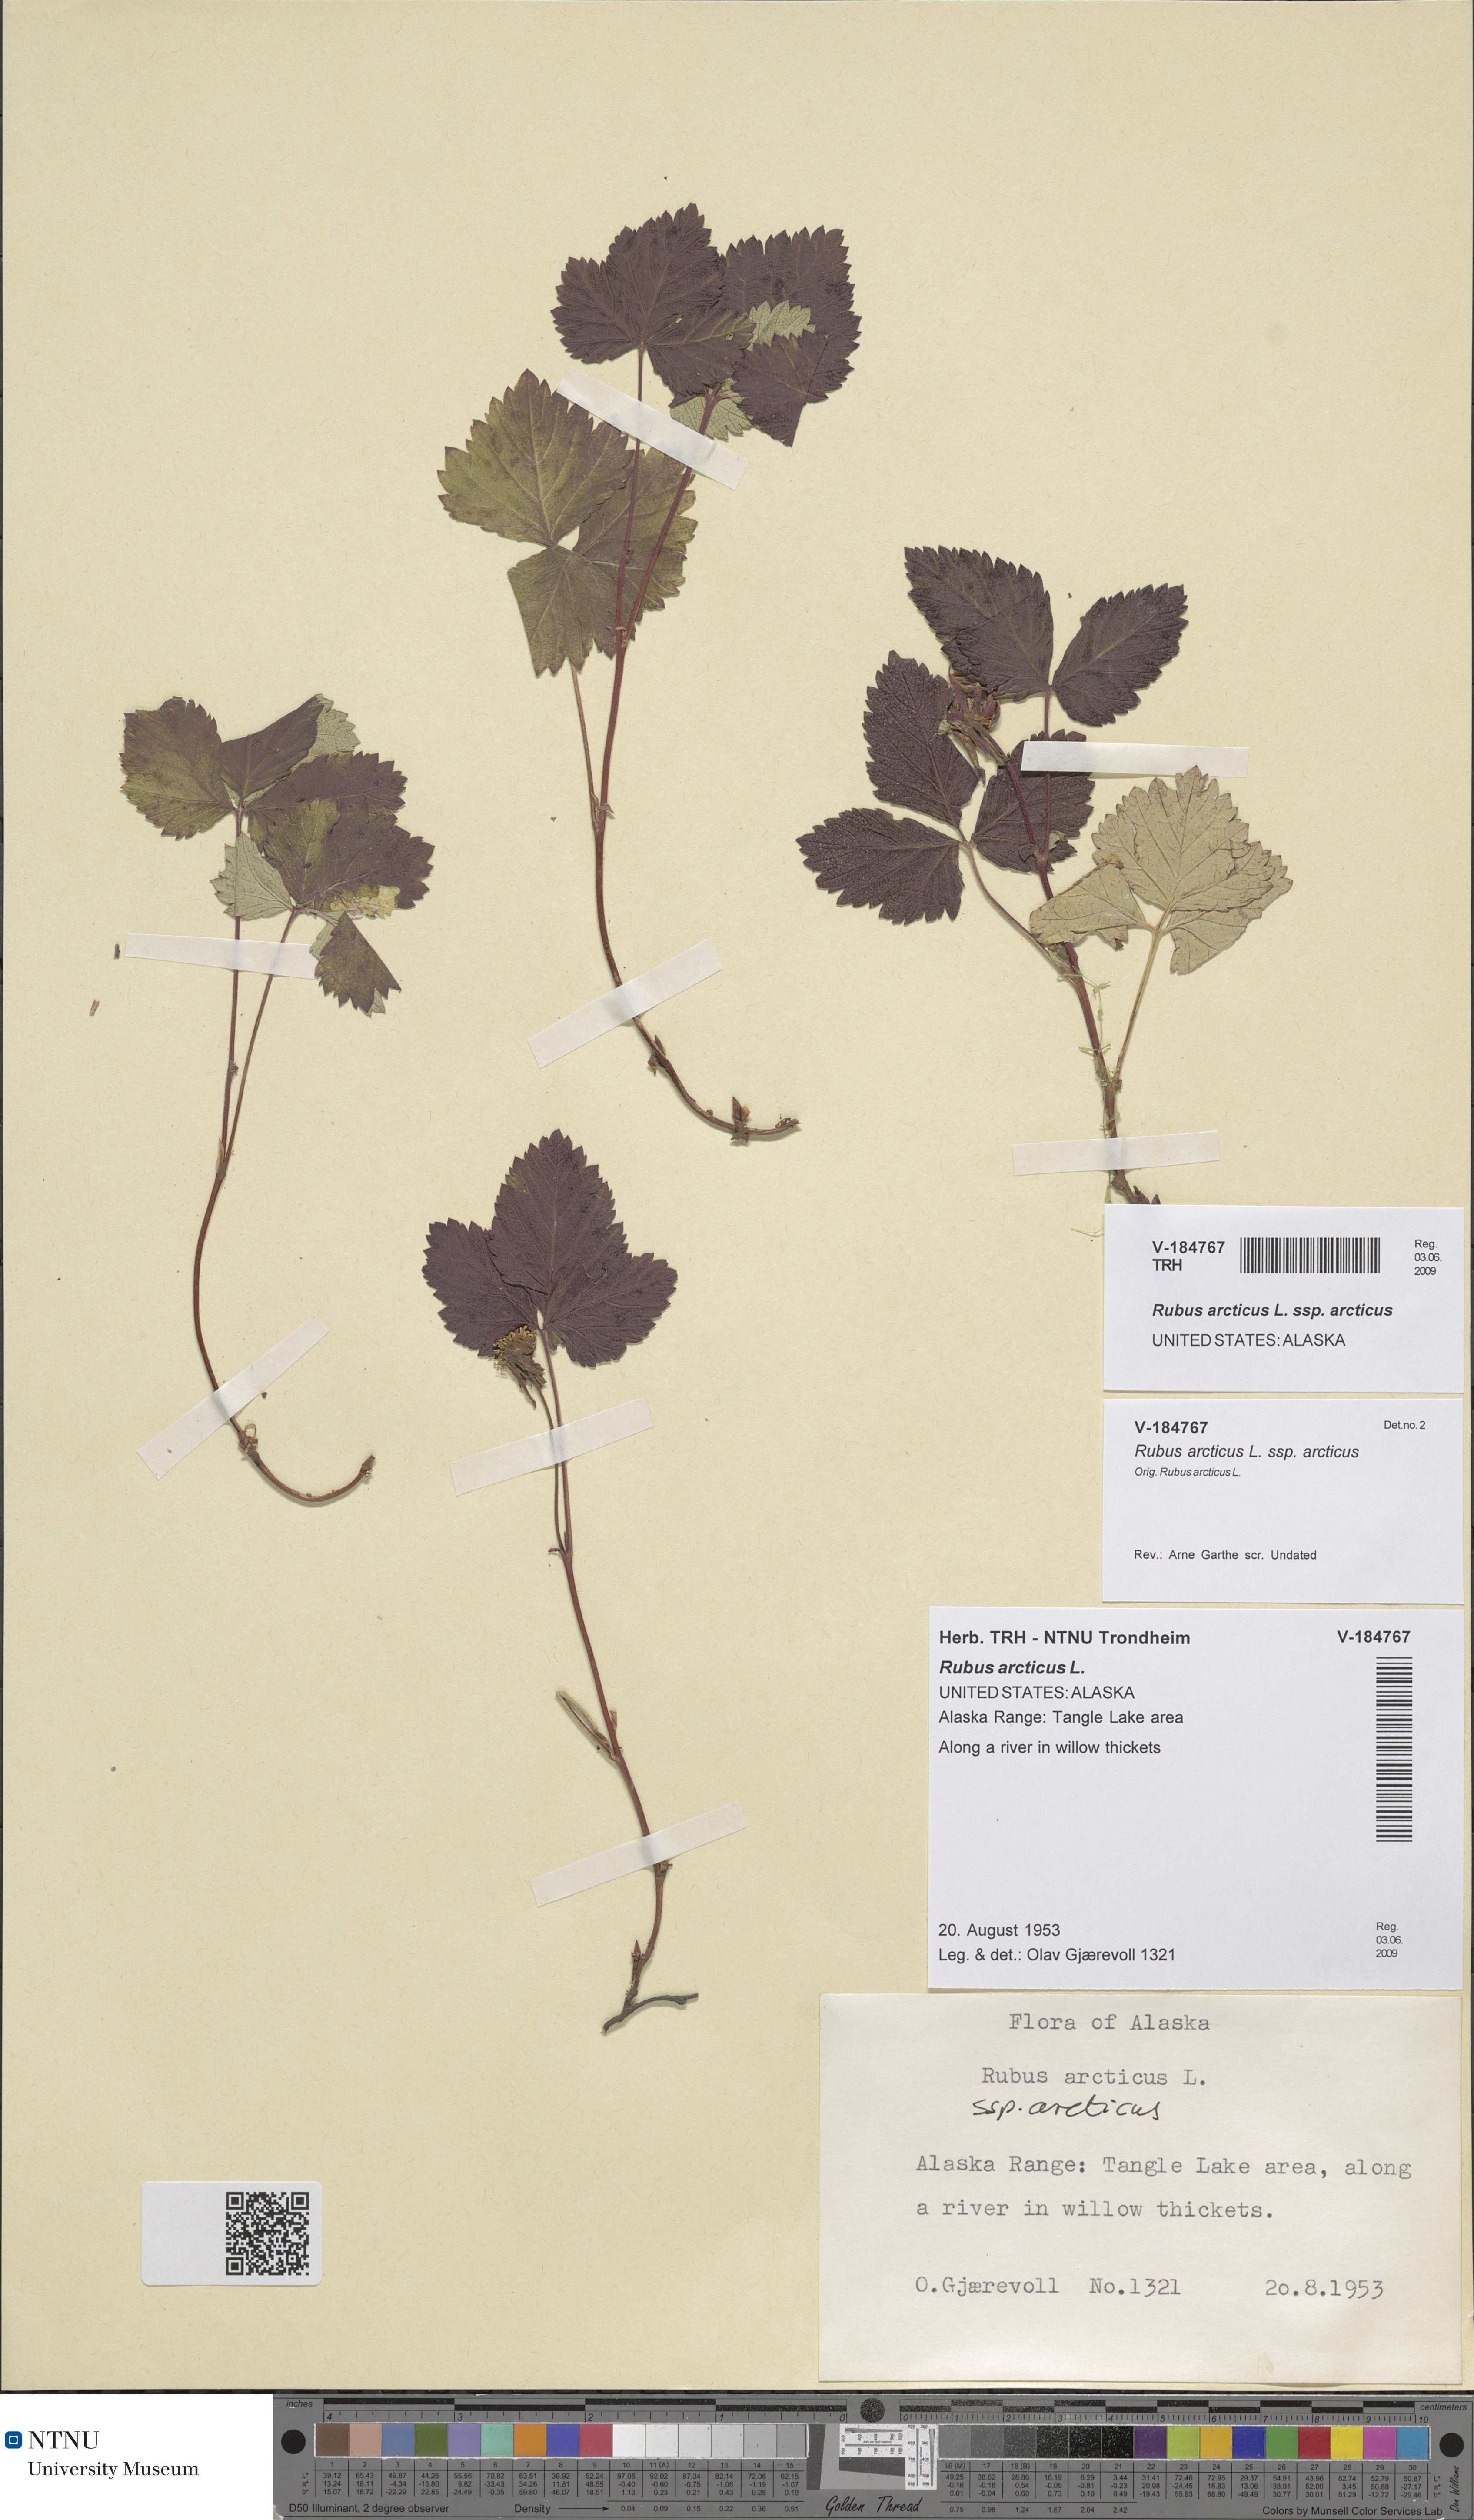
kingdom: Plantae
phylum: Tracheophyta
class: Magnoliopsida
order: Rosales
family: Rosaceae
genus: Rubus
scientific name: Rubus arcticus
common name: Arctic bramble
